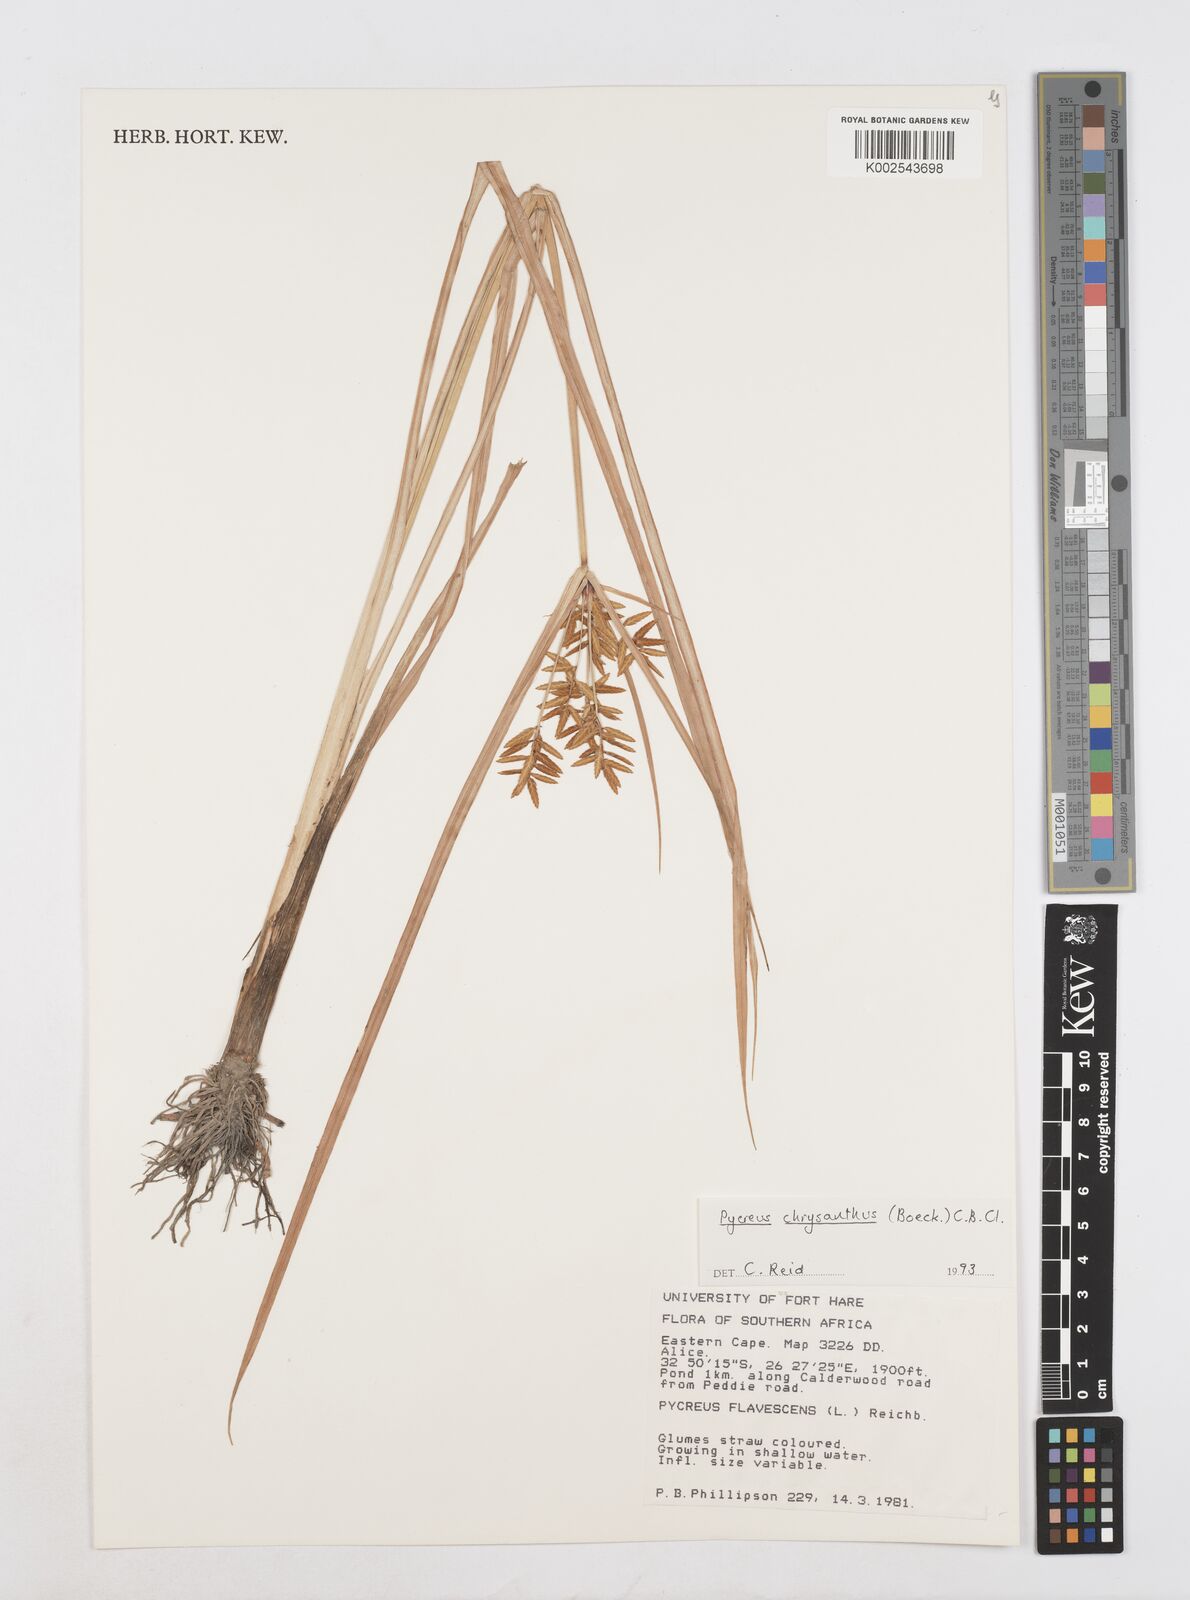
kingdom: Plantae
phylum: Tracheophyta
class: Liliopsida
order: Poales
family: Cyperaceae
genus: Cyperus
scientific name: Cyperus chrysanthus
